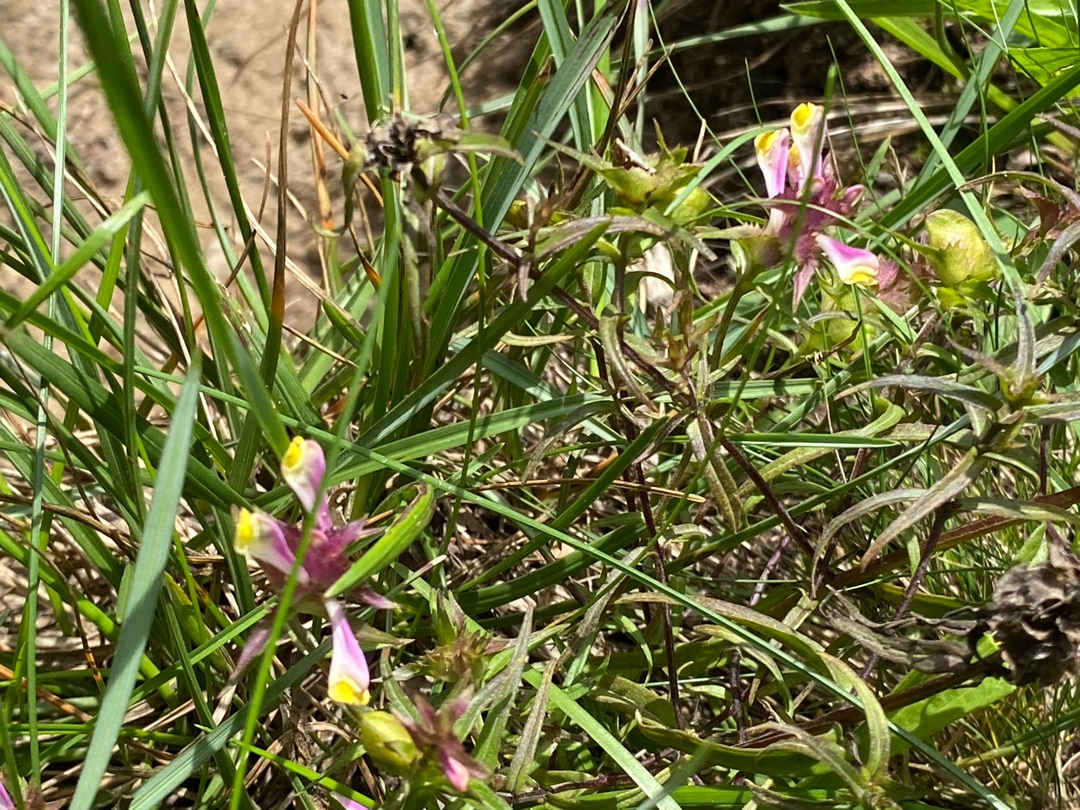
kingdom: Plantae
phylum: Tracheophyta
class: Magnoliopsida
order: Lamiales
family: Orobanchaceae
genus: Melampyrum
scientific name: Melampyrum cristatum
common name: Kantet kohvede
